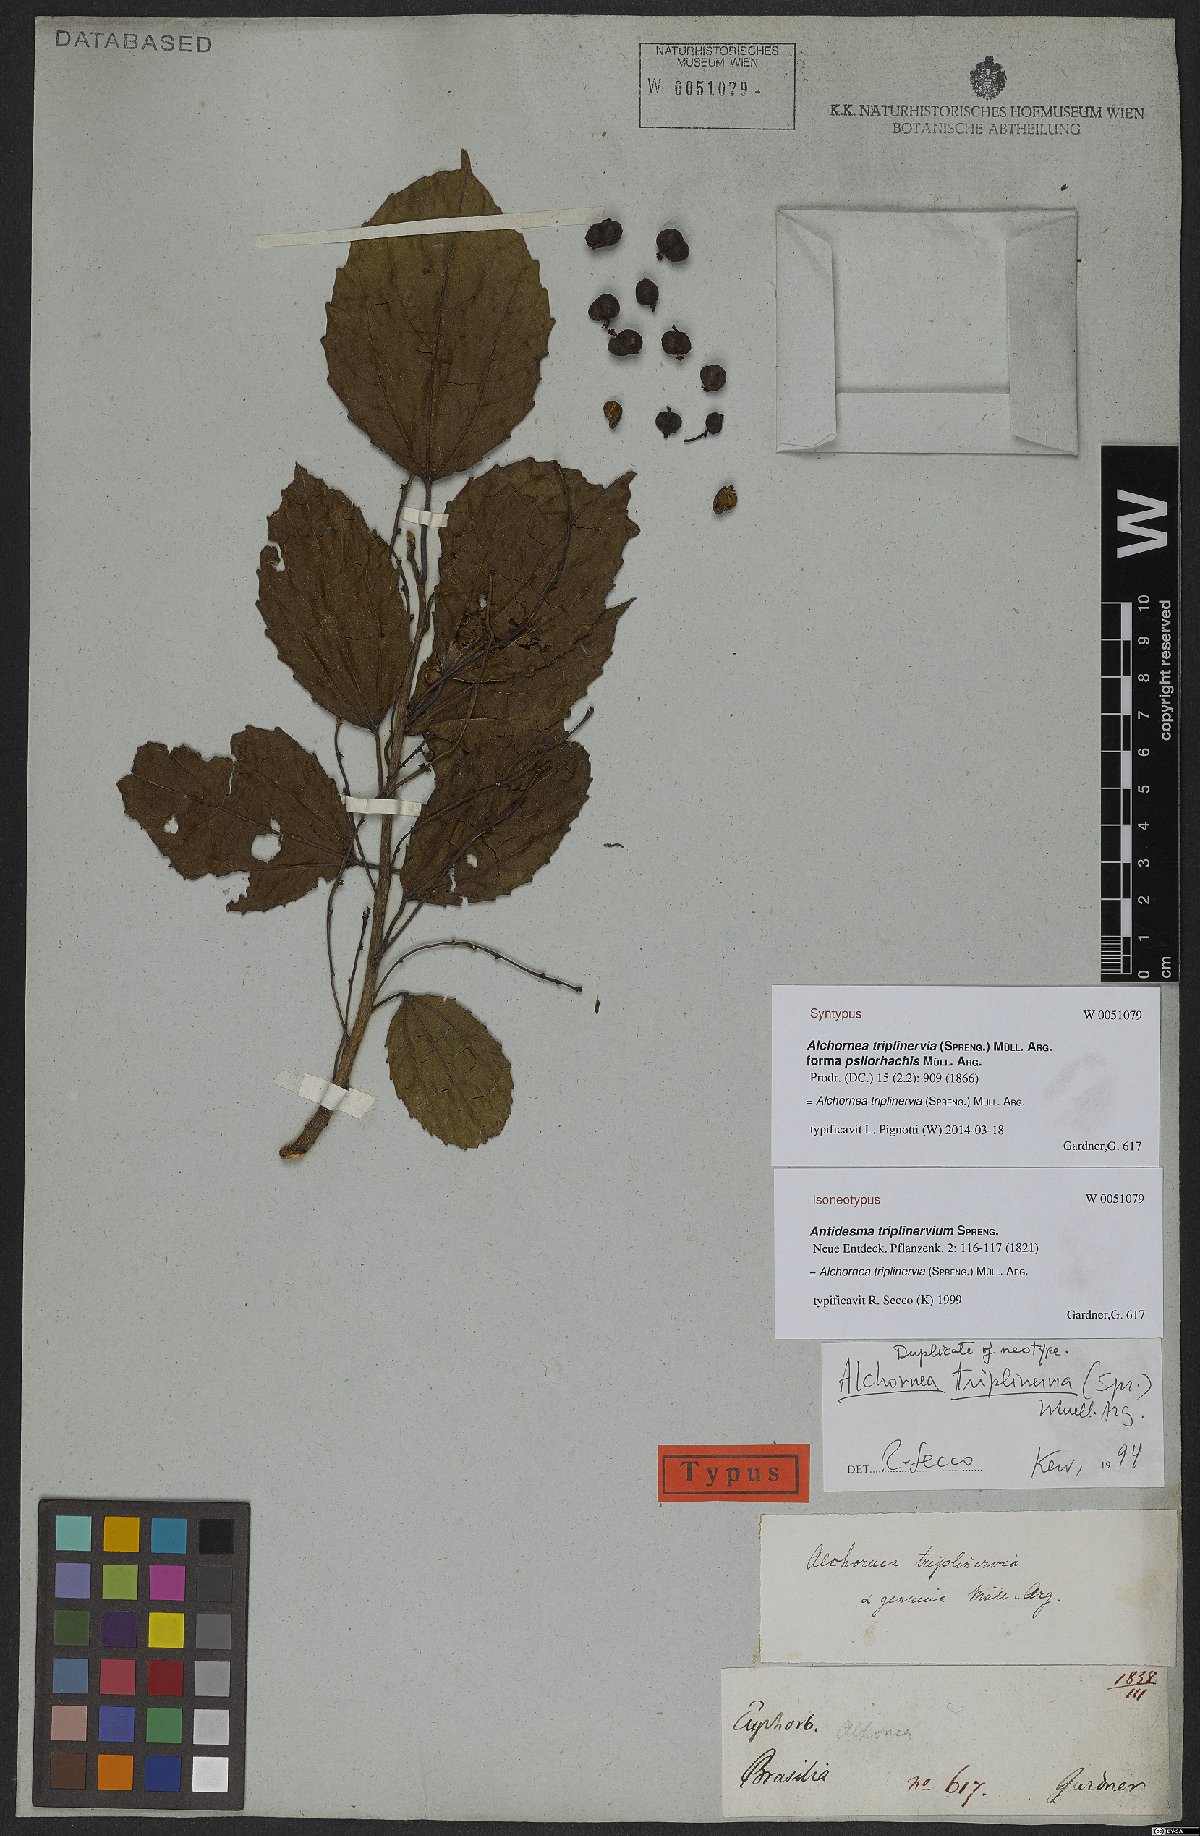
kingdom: Plantae
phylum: Tracheophyta
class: Magnoliopsida
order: Malpighiales
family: Euphorbiaceae
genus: Alchornea
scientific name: Alchornea triplinervia
